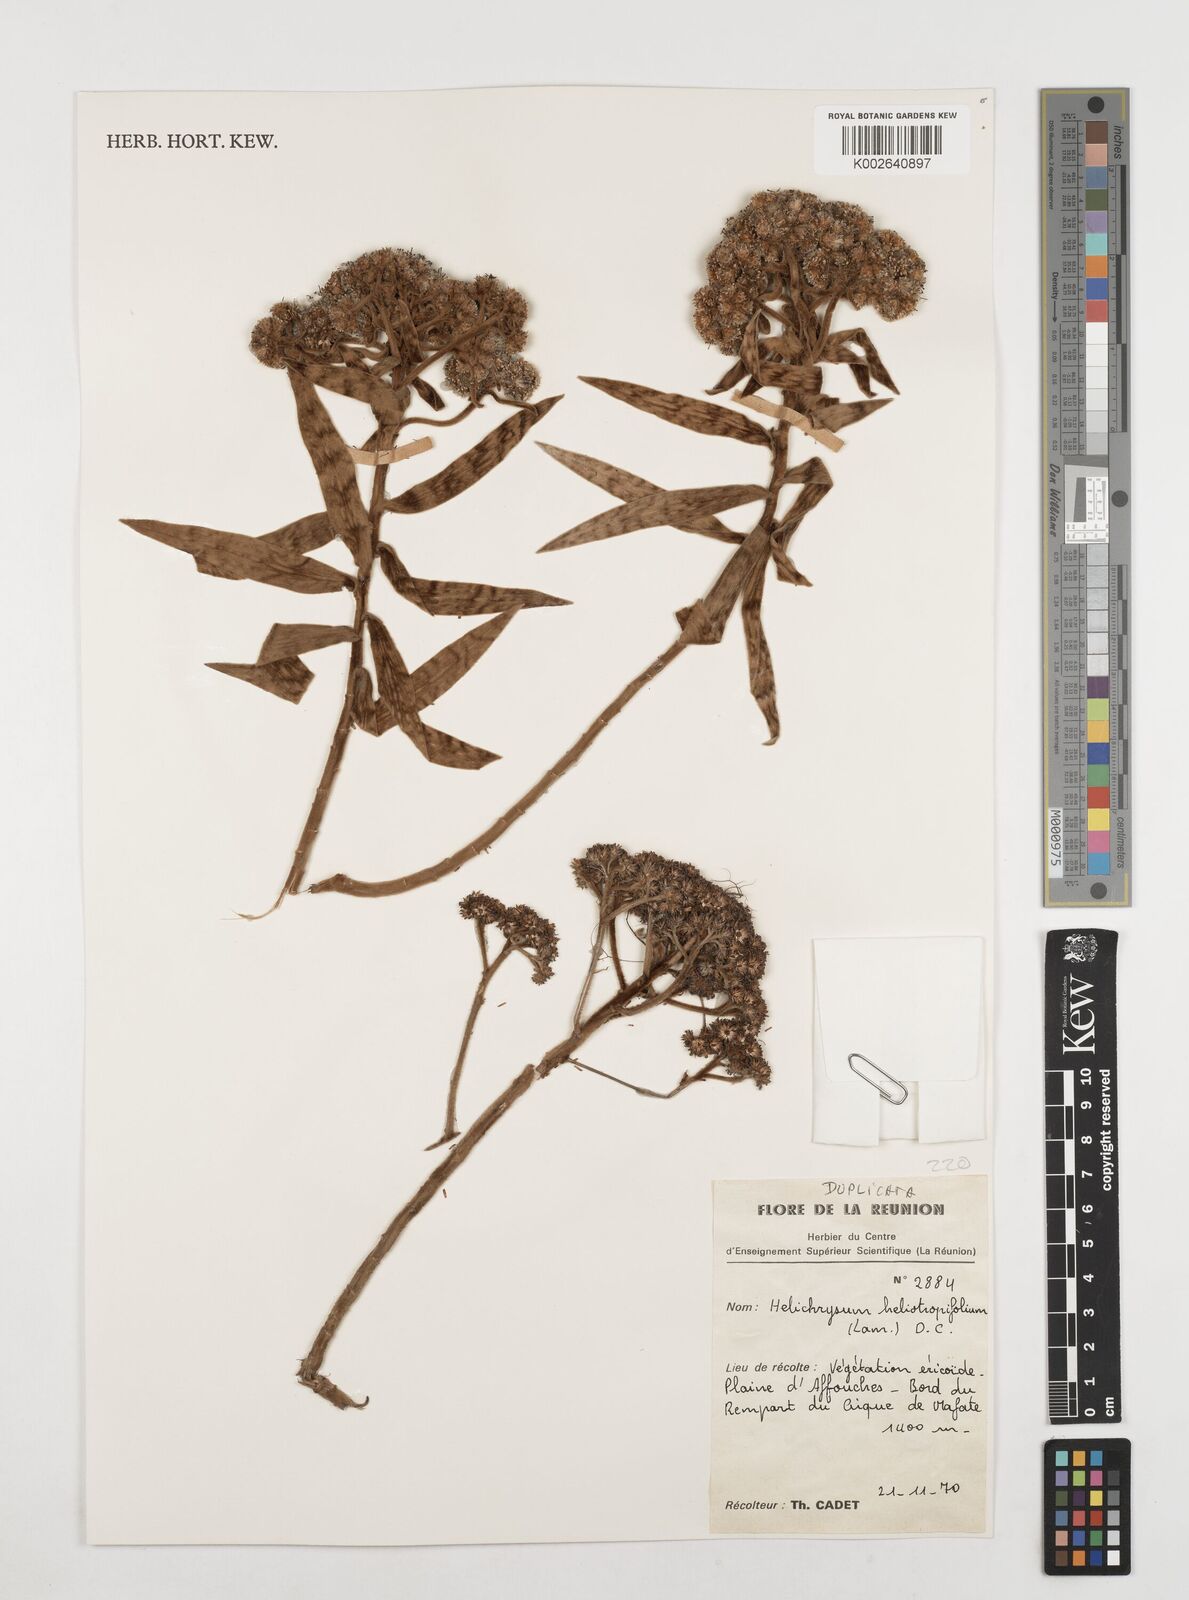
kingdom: Plantae
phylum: Tracheophyta
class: Magnoliopsida
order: Asterales
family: Asteraceae
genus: Helichrysum
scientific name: Helichrysum heliotropifolium
